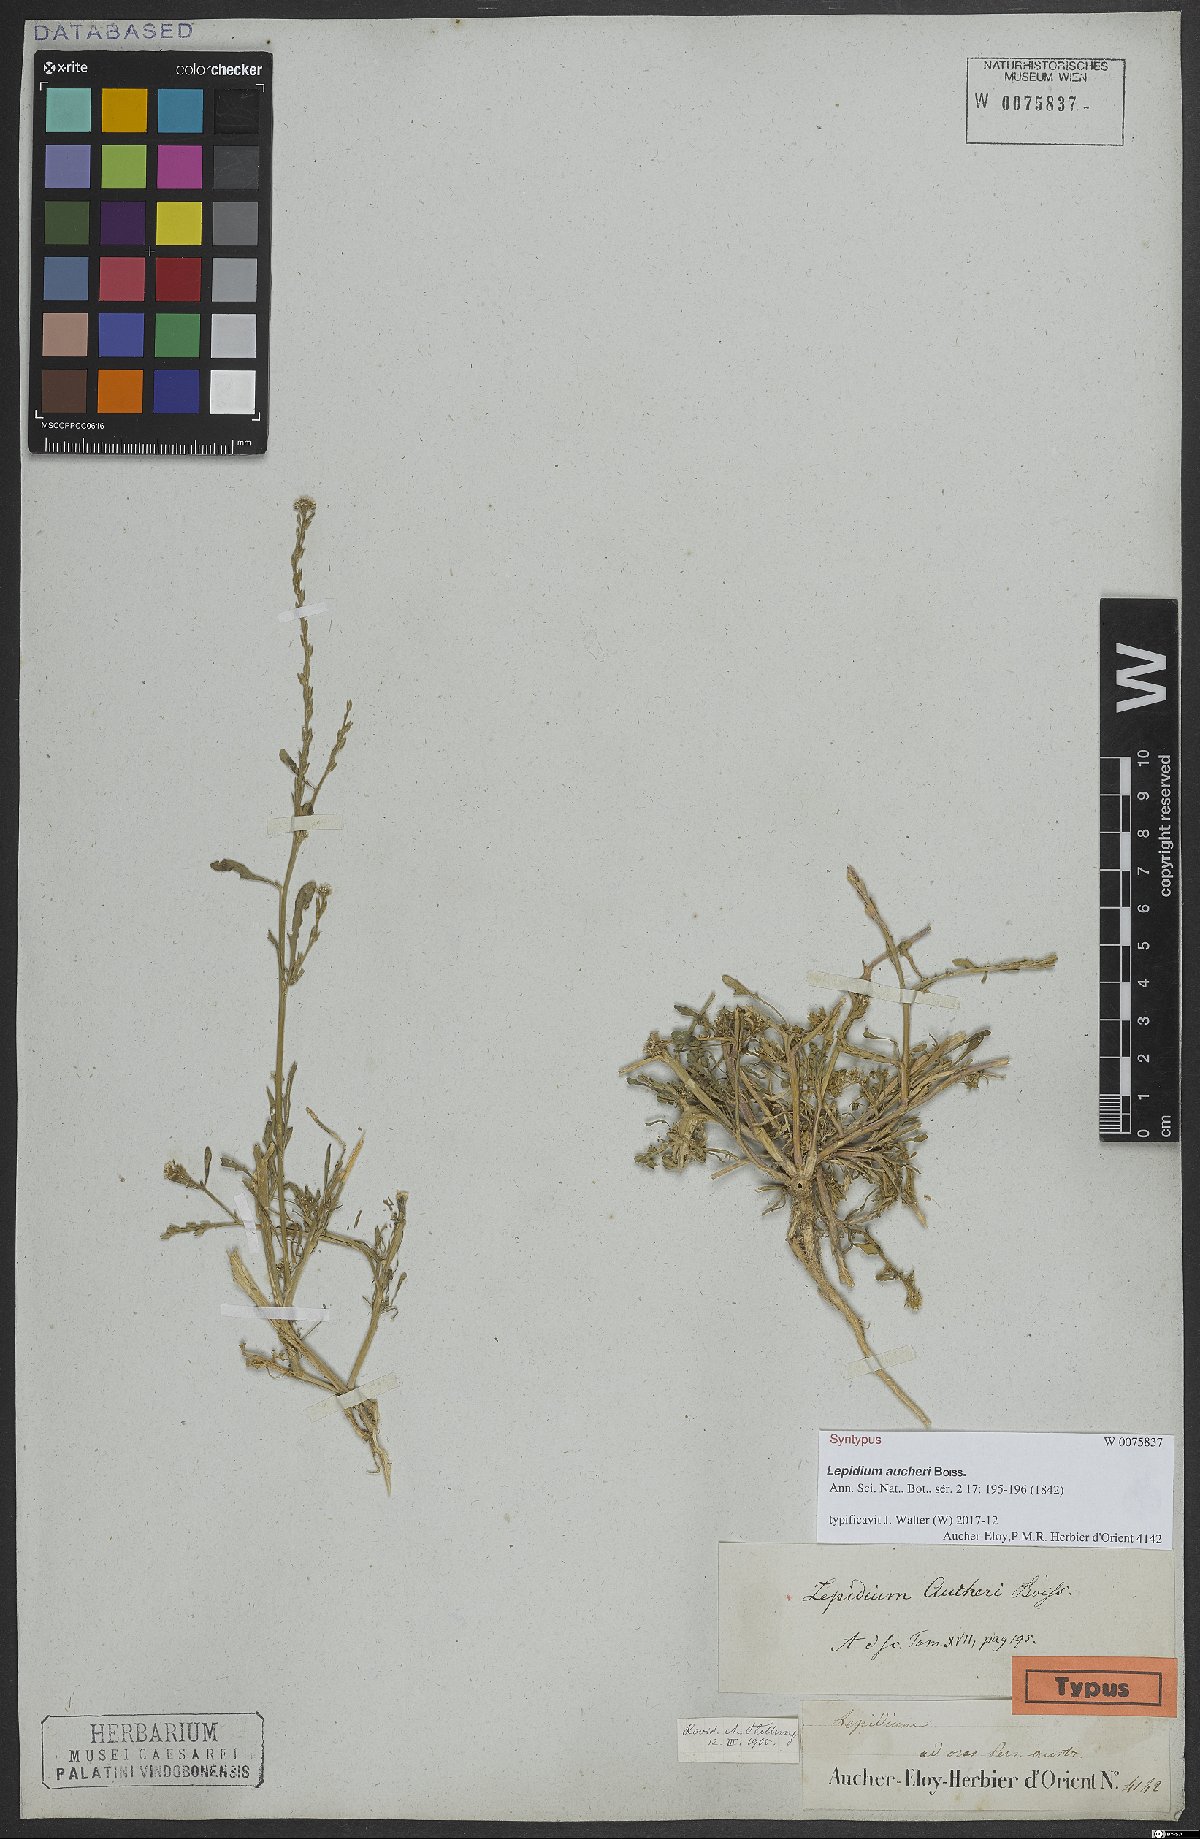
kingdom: Plantae
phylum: Tracheophyta
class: Magnoliopsida
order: Brassicales
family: Brassicaceae
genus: Lepidium
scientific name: Lepidium aucheri
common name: Aucher's peppergrass
